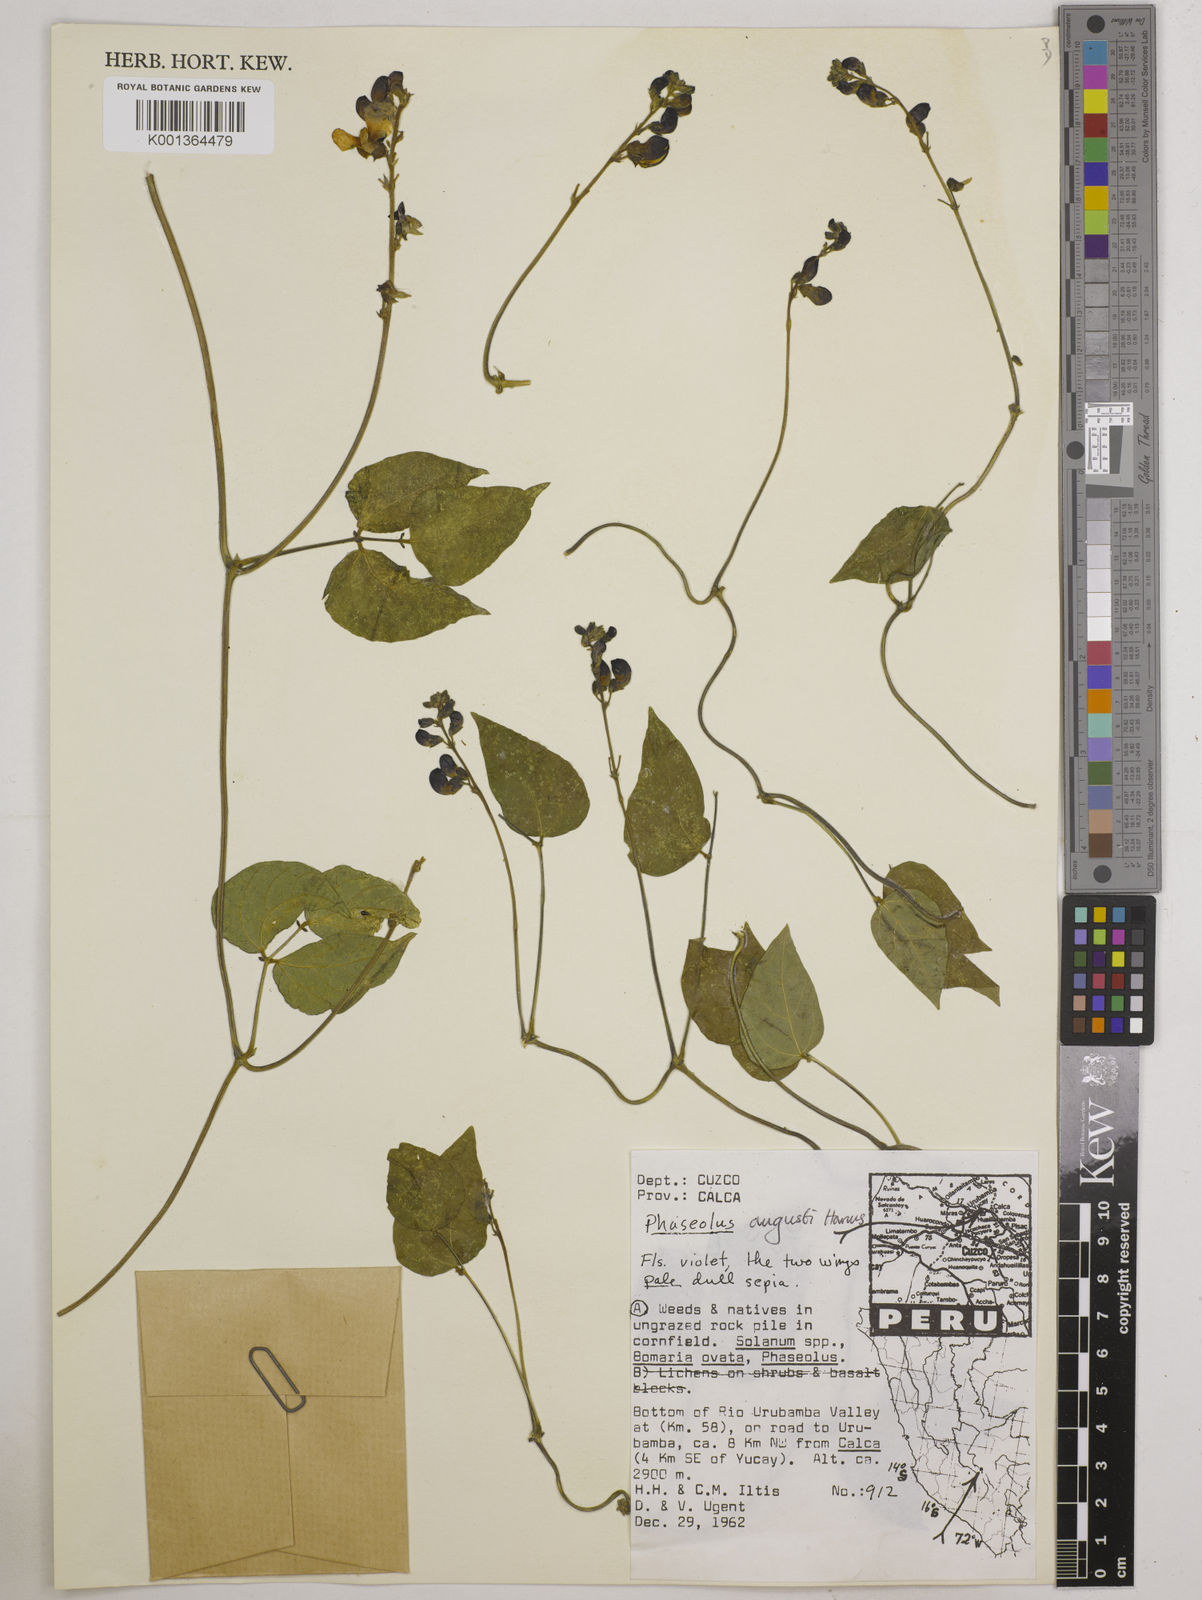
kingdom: Plantae
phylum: Tracheophyta
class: Magnoliopsida
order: Fabales
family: Fabaceae
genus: Phaseolus
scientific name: Phaseolus augusti
